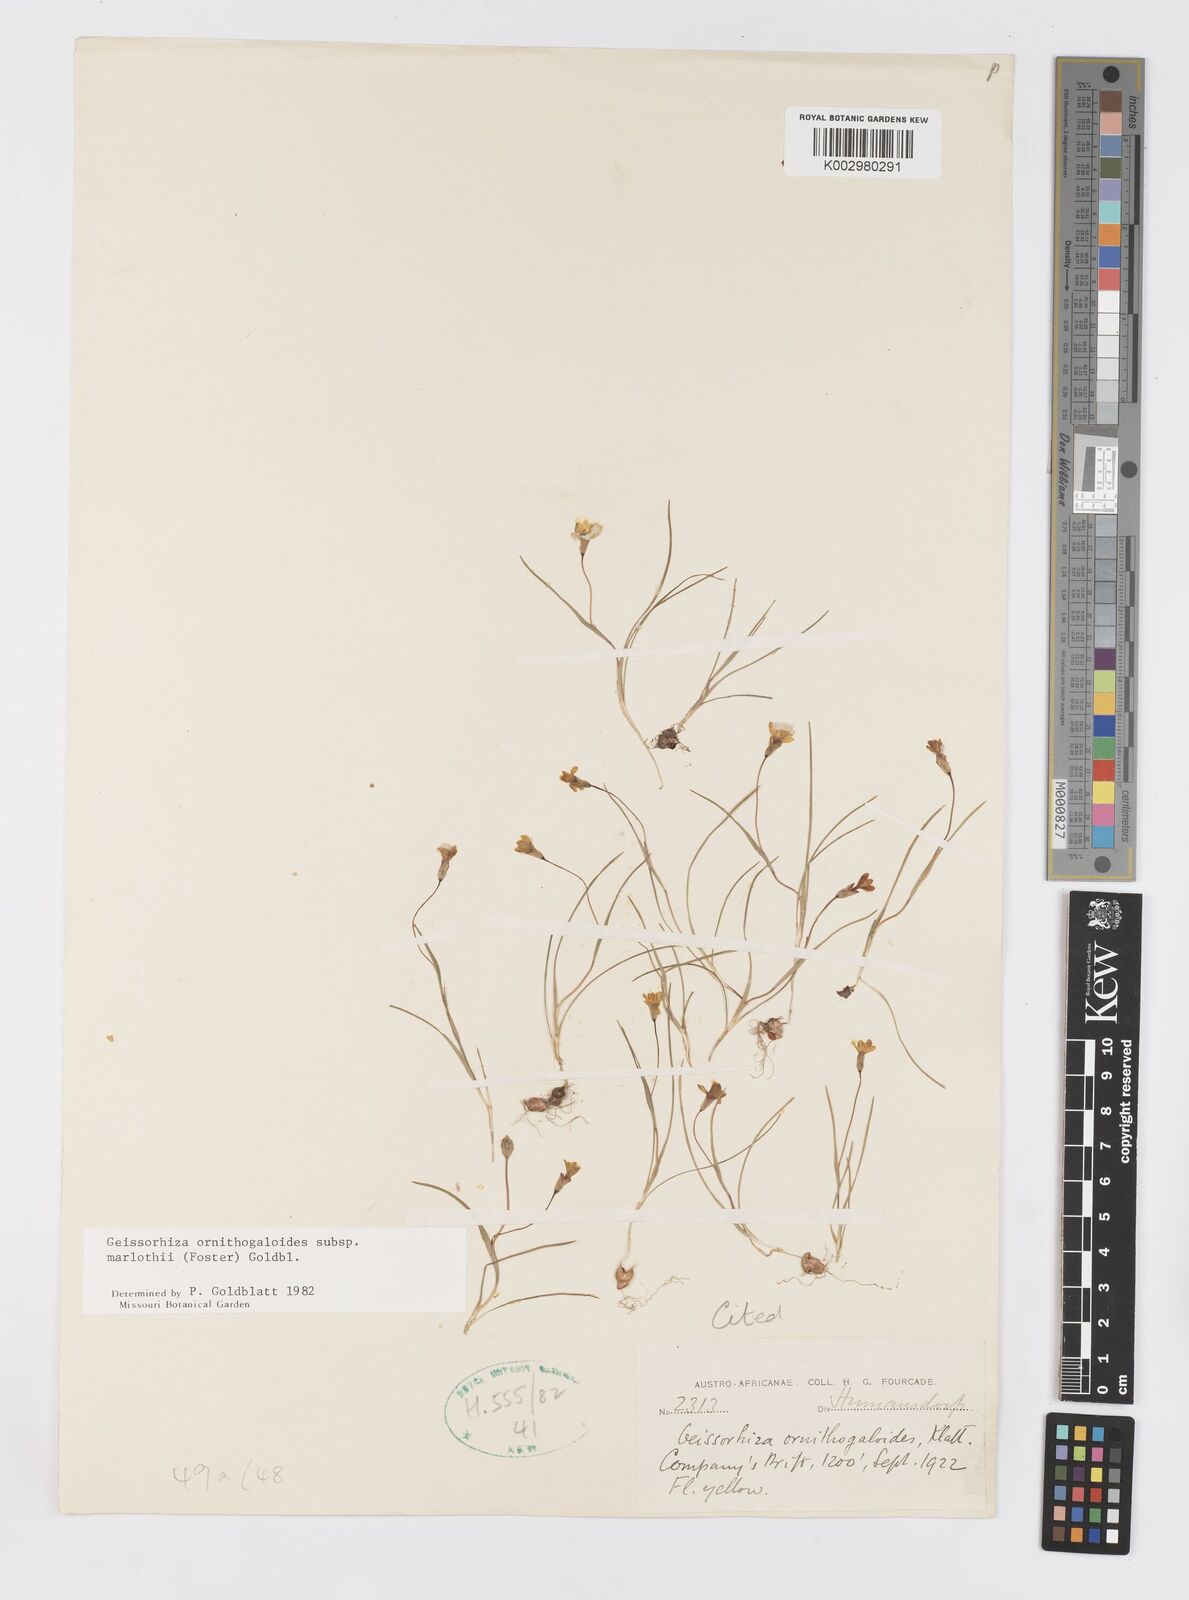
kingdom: Plantae
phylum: Tracheophyta
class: Liliopsida
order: Asparagales
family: Iridaceae
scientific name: Iridaceae
